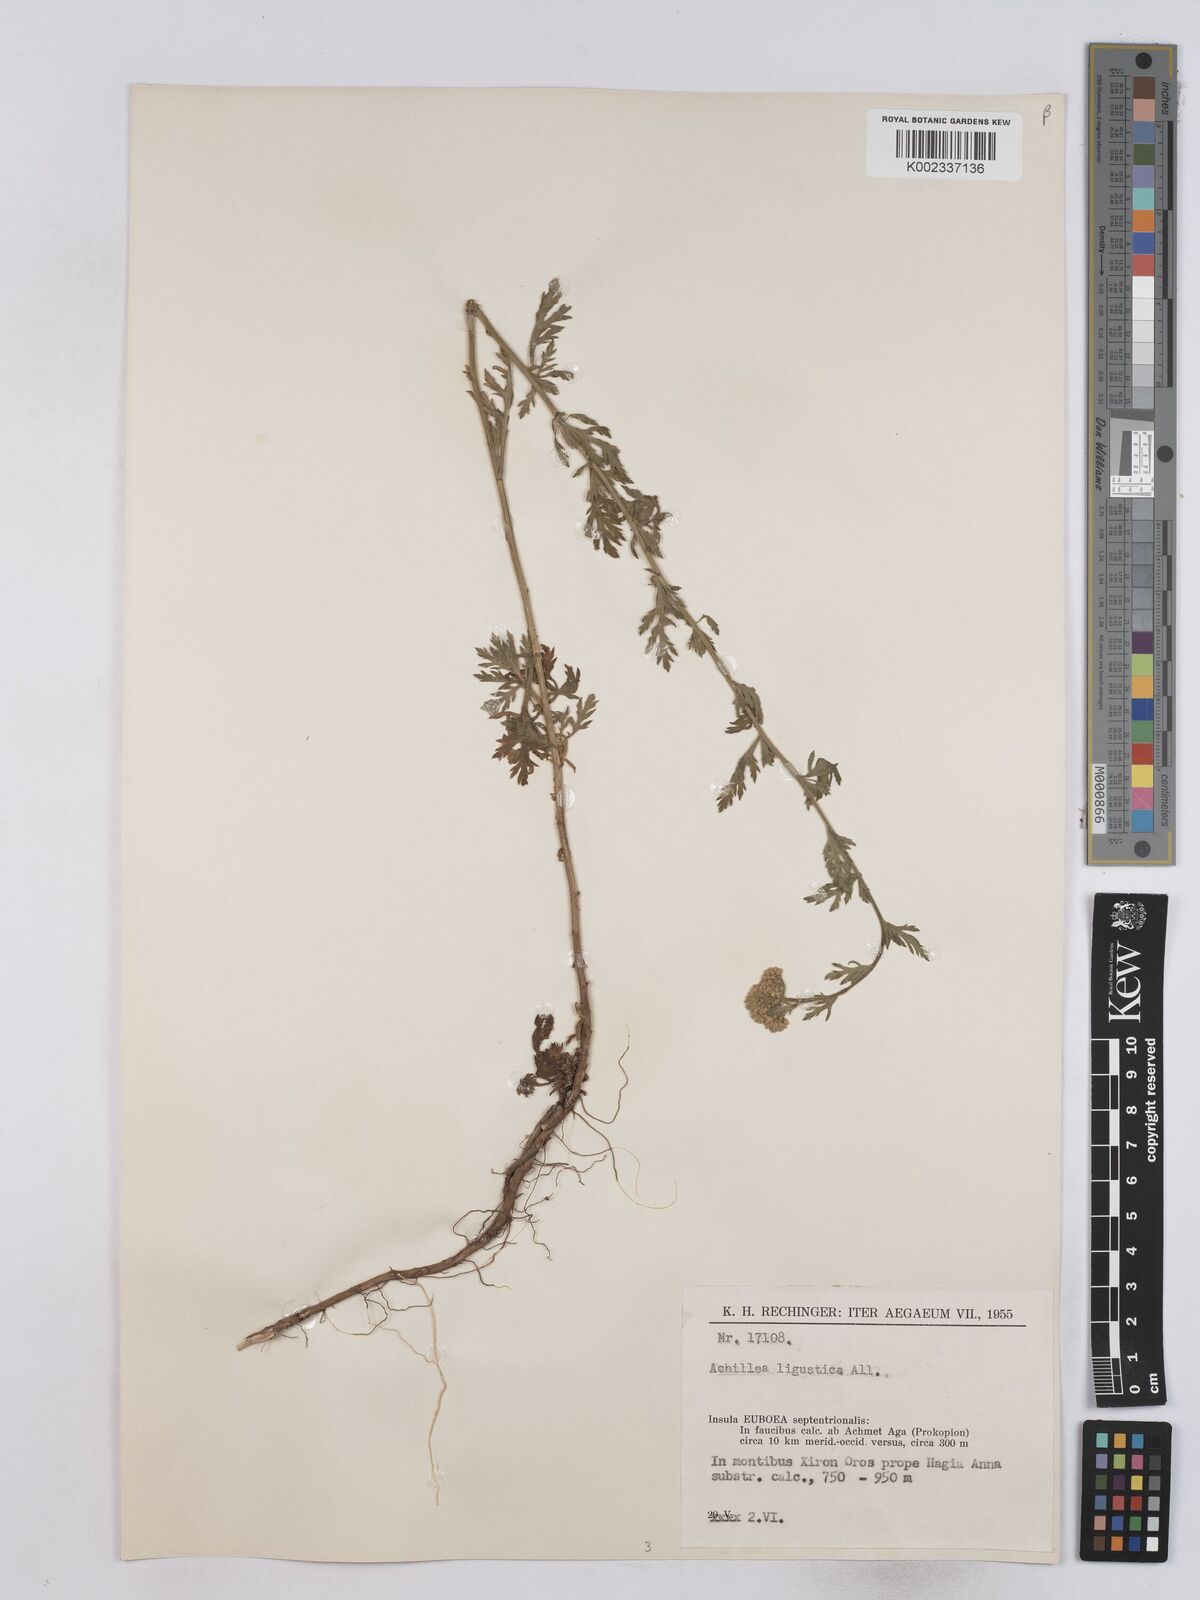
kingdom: Plantae
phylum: Tracheophyta
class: Magnoliopsida
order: Asterales
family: Asteraceae
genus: Achillea
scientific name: Achillea ligustica
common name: Southern yarrow
